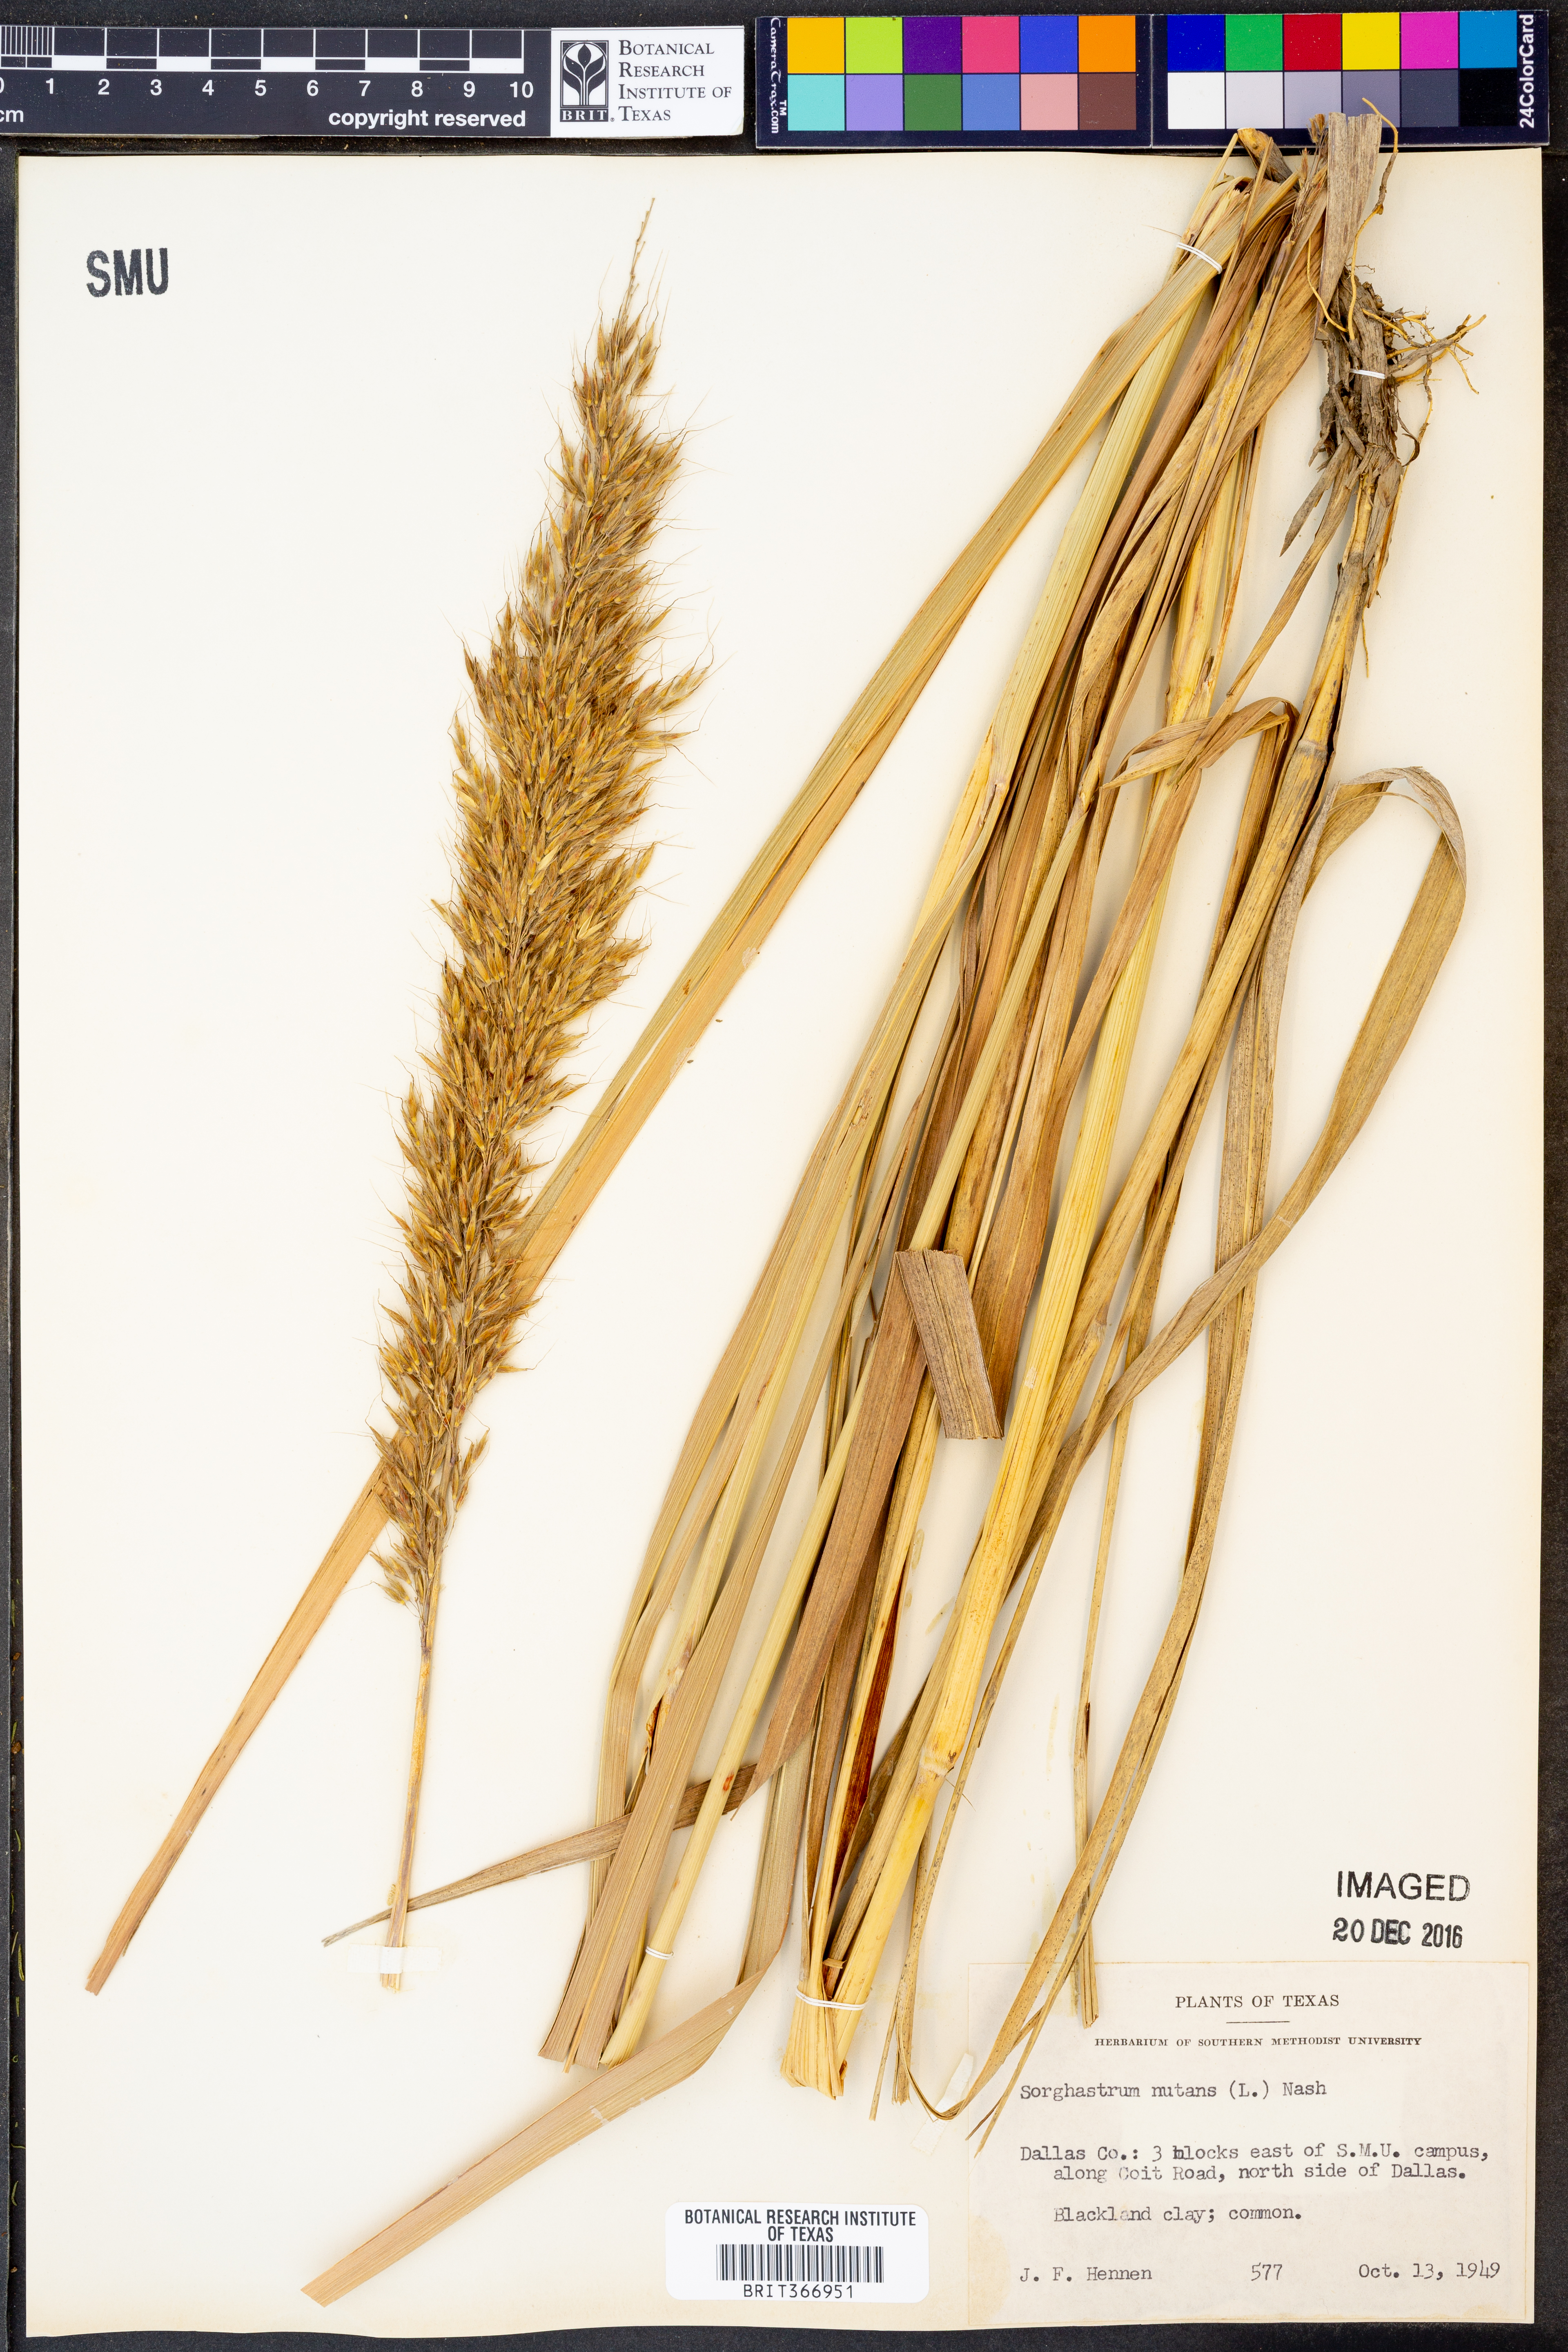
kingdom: Plantae
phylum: Tracheophyta
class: Liliopsida
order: Poales
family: Poaceae
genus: Sorghastrum
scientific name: Sorghastrum nutans
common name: Indian grass
